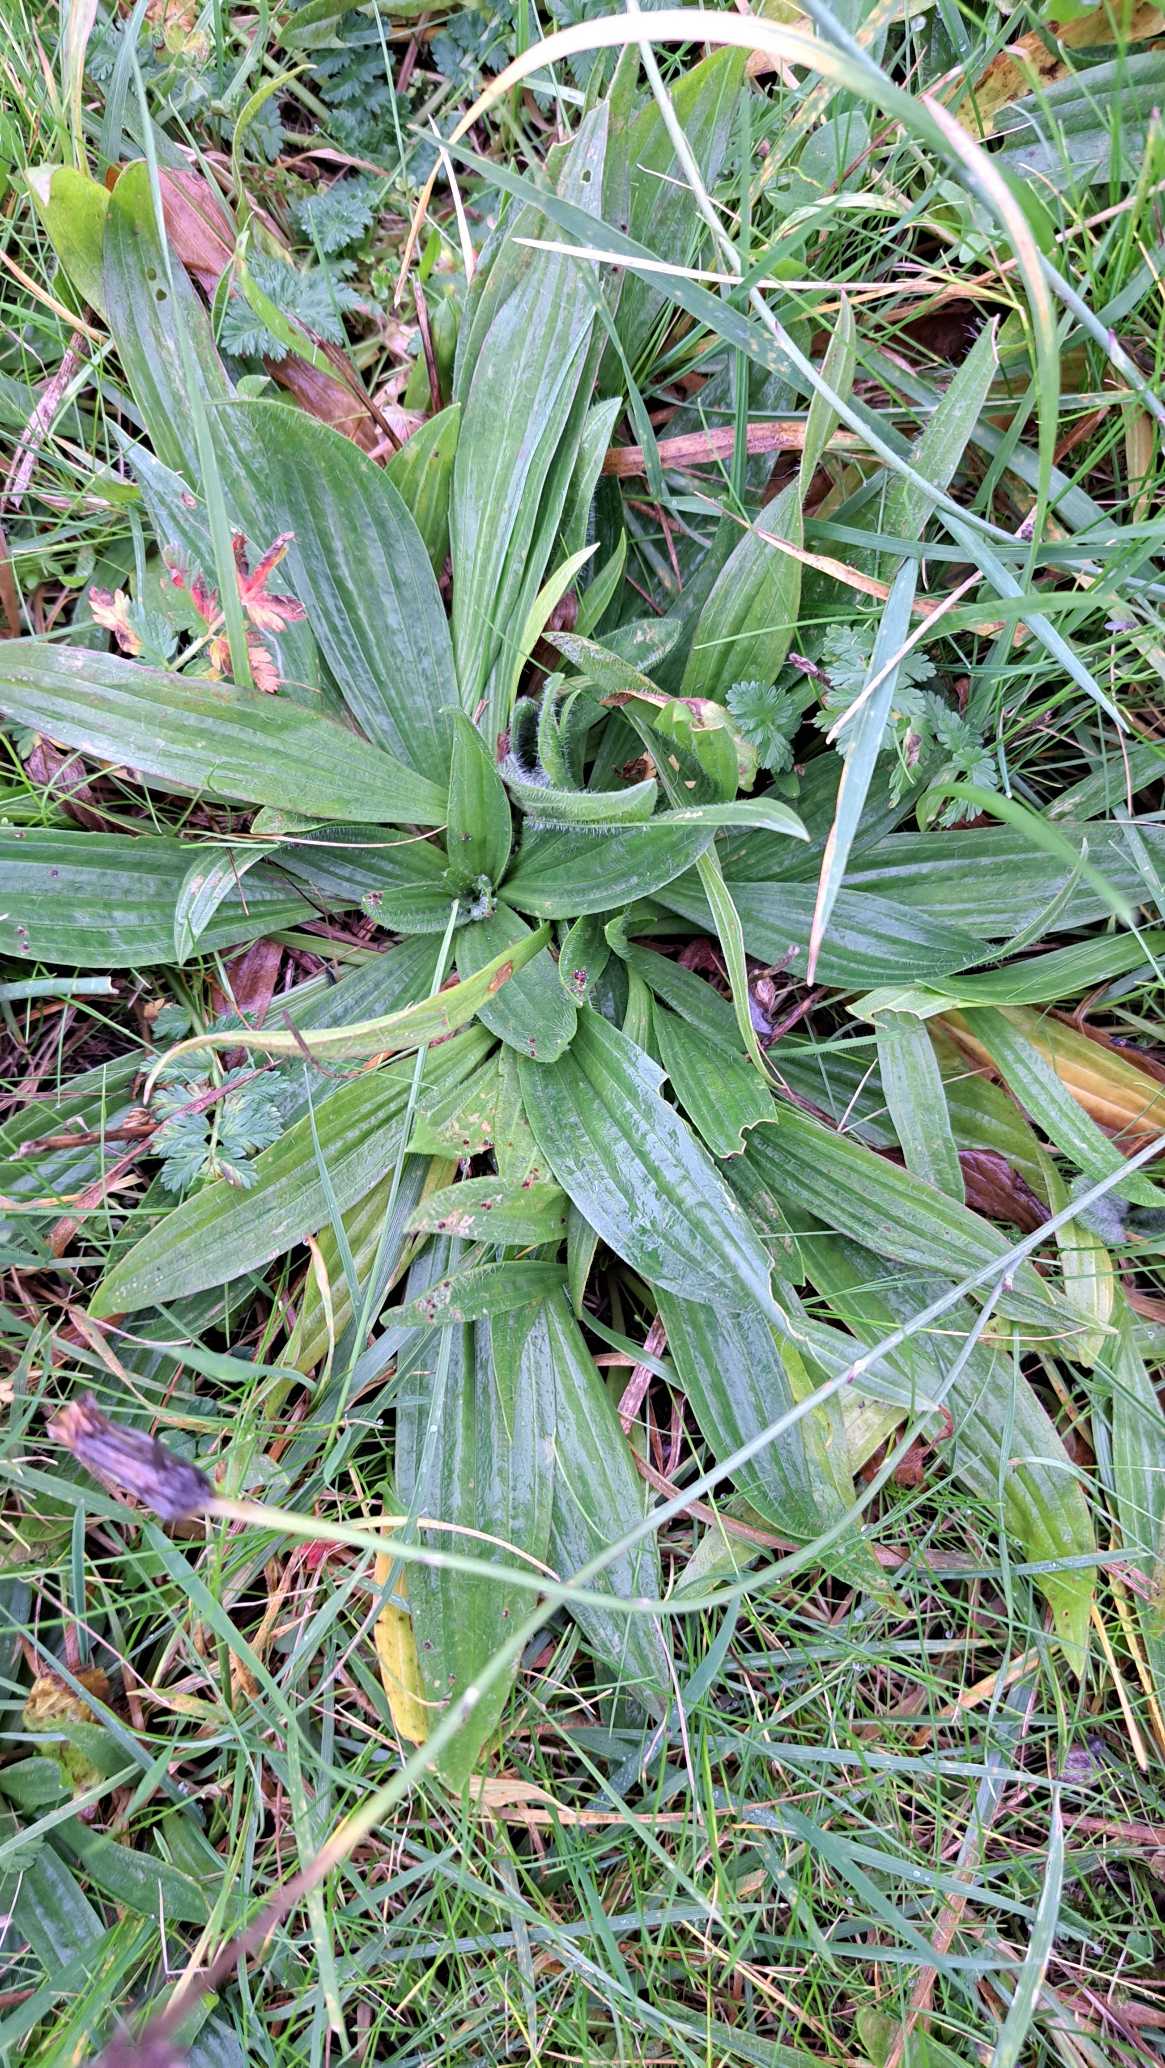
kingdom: Plantae
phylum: Tracheophyta
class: Magnoliopsida
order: Lamiales
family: Plantaginaceae
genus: Plantago
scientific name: Plantago lanceolata
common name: Lancet-vejbred
